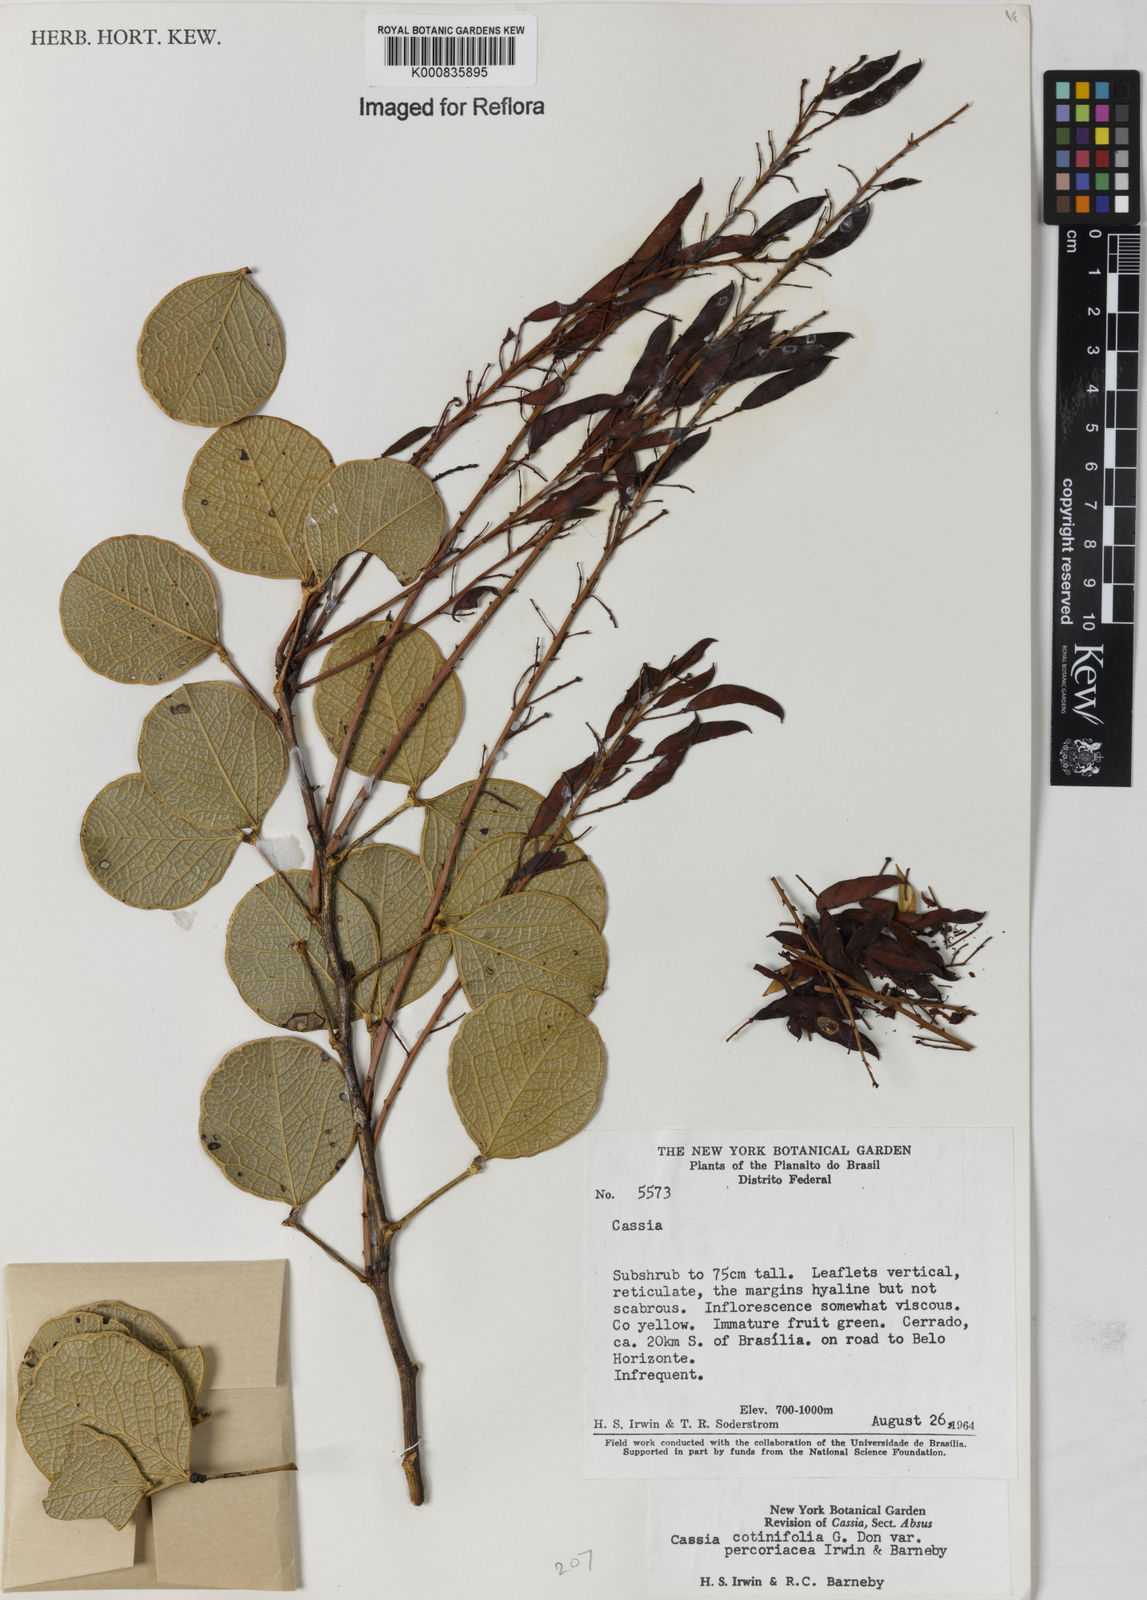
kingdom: Plantae
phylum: Tracheophyta
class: Magnoliopsida
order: Fabales
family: Fabaceae
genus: Chamaecrista
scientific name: Chamaecrista cotinifolia
